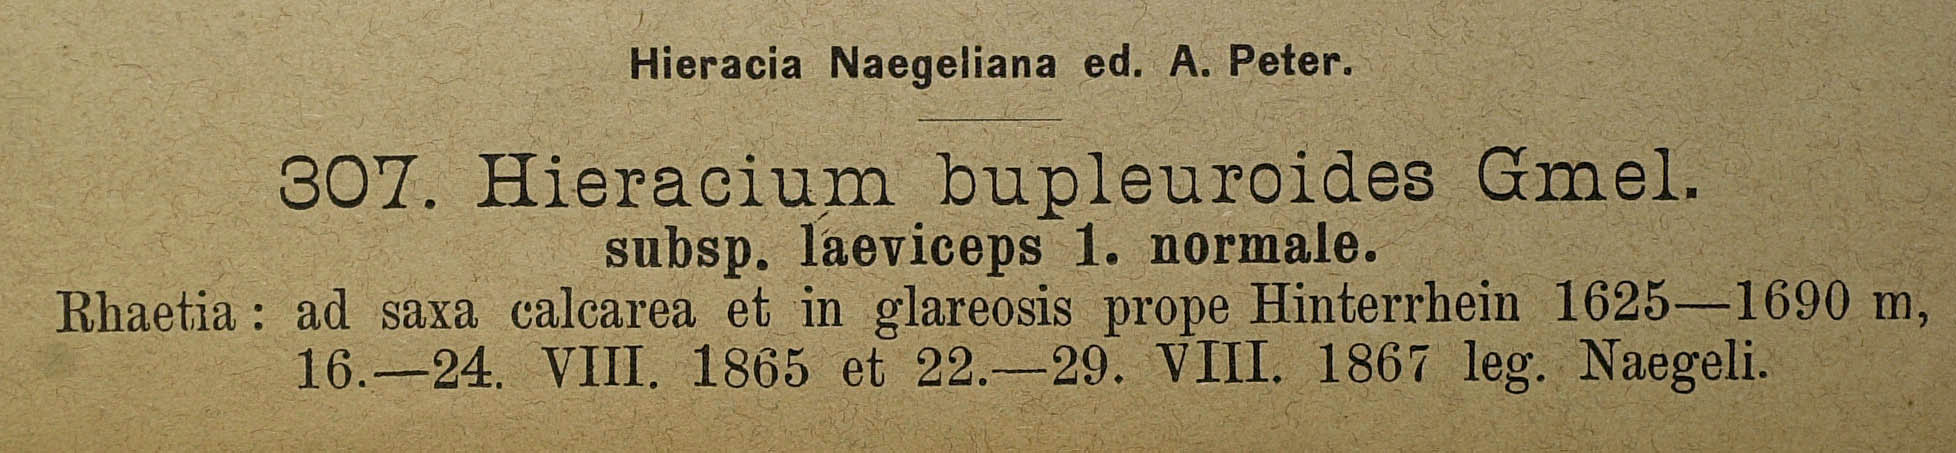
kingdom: Plantae
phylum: Tracheophyta
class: Magnoliopsida
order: Asterales
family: Asteraceae
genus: Hieracium
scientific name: Hieracium bupleuroides
